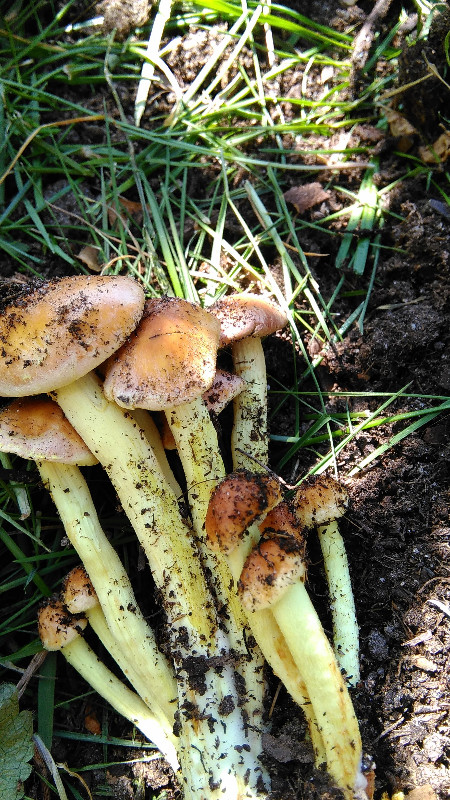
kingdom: Fungi
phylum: Basidiomycota
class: Agaricomycetes
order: Agaricales
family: Strophariaceae
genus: Hypholoma
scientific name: Hypholoma fasciculare
